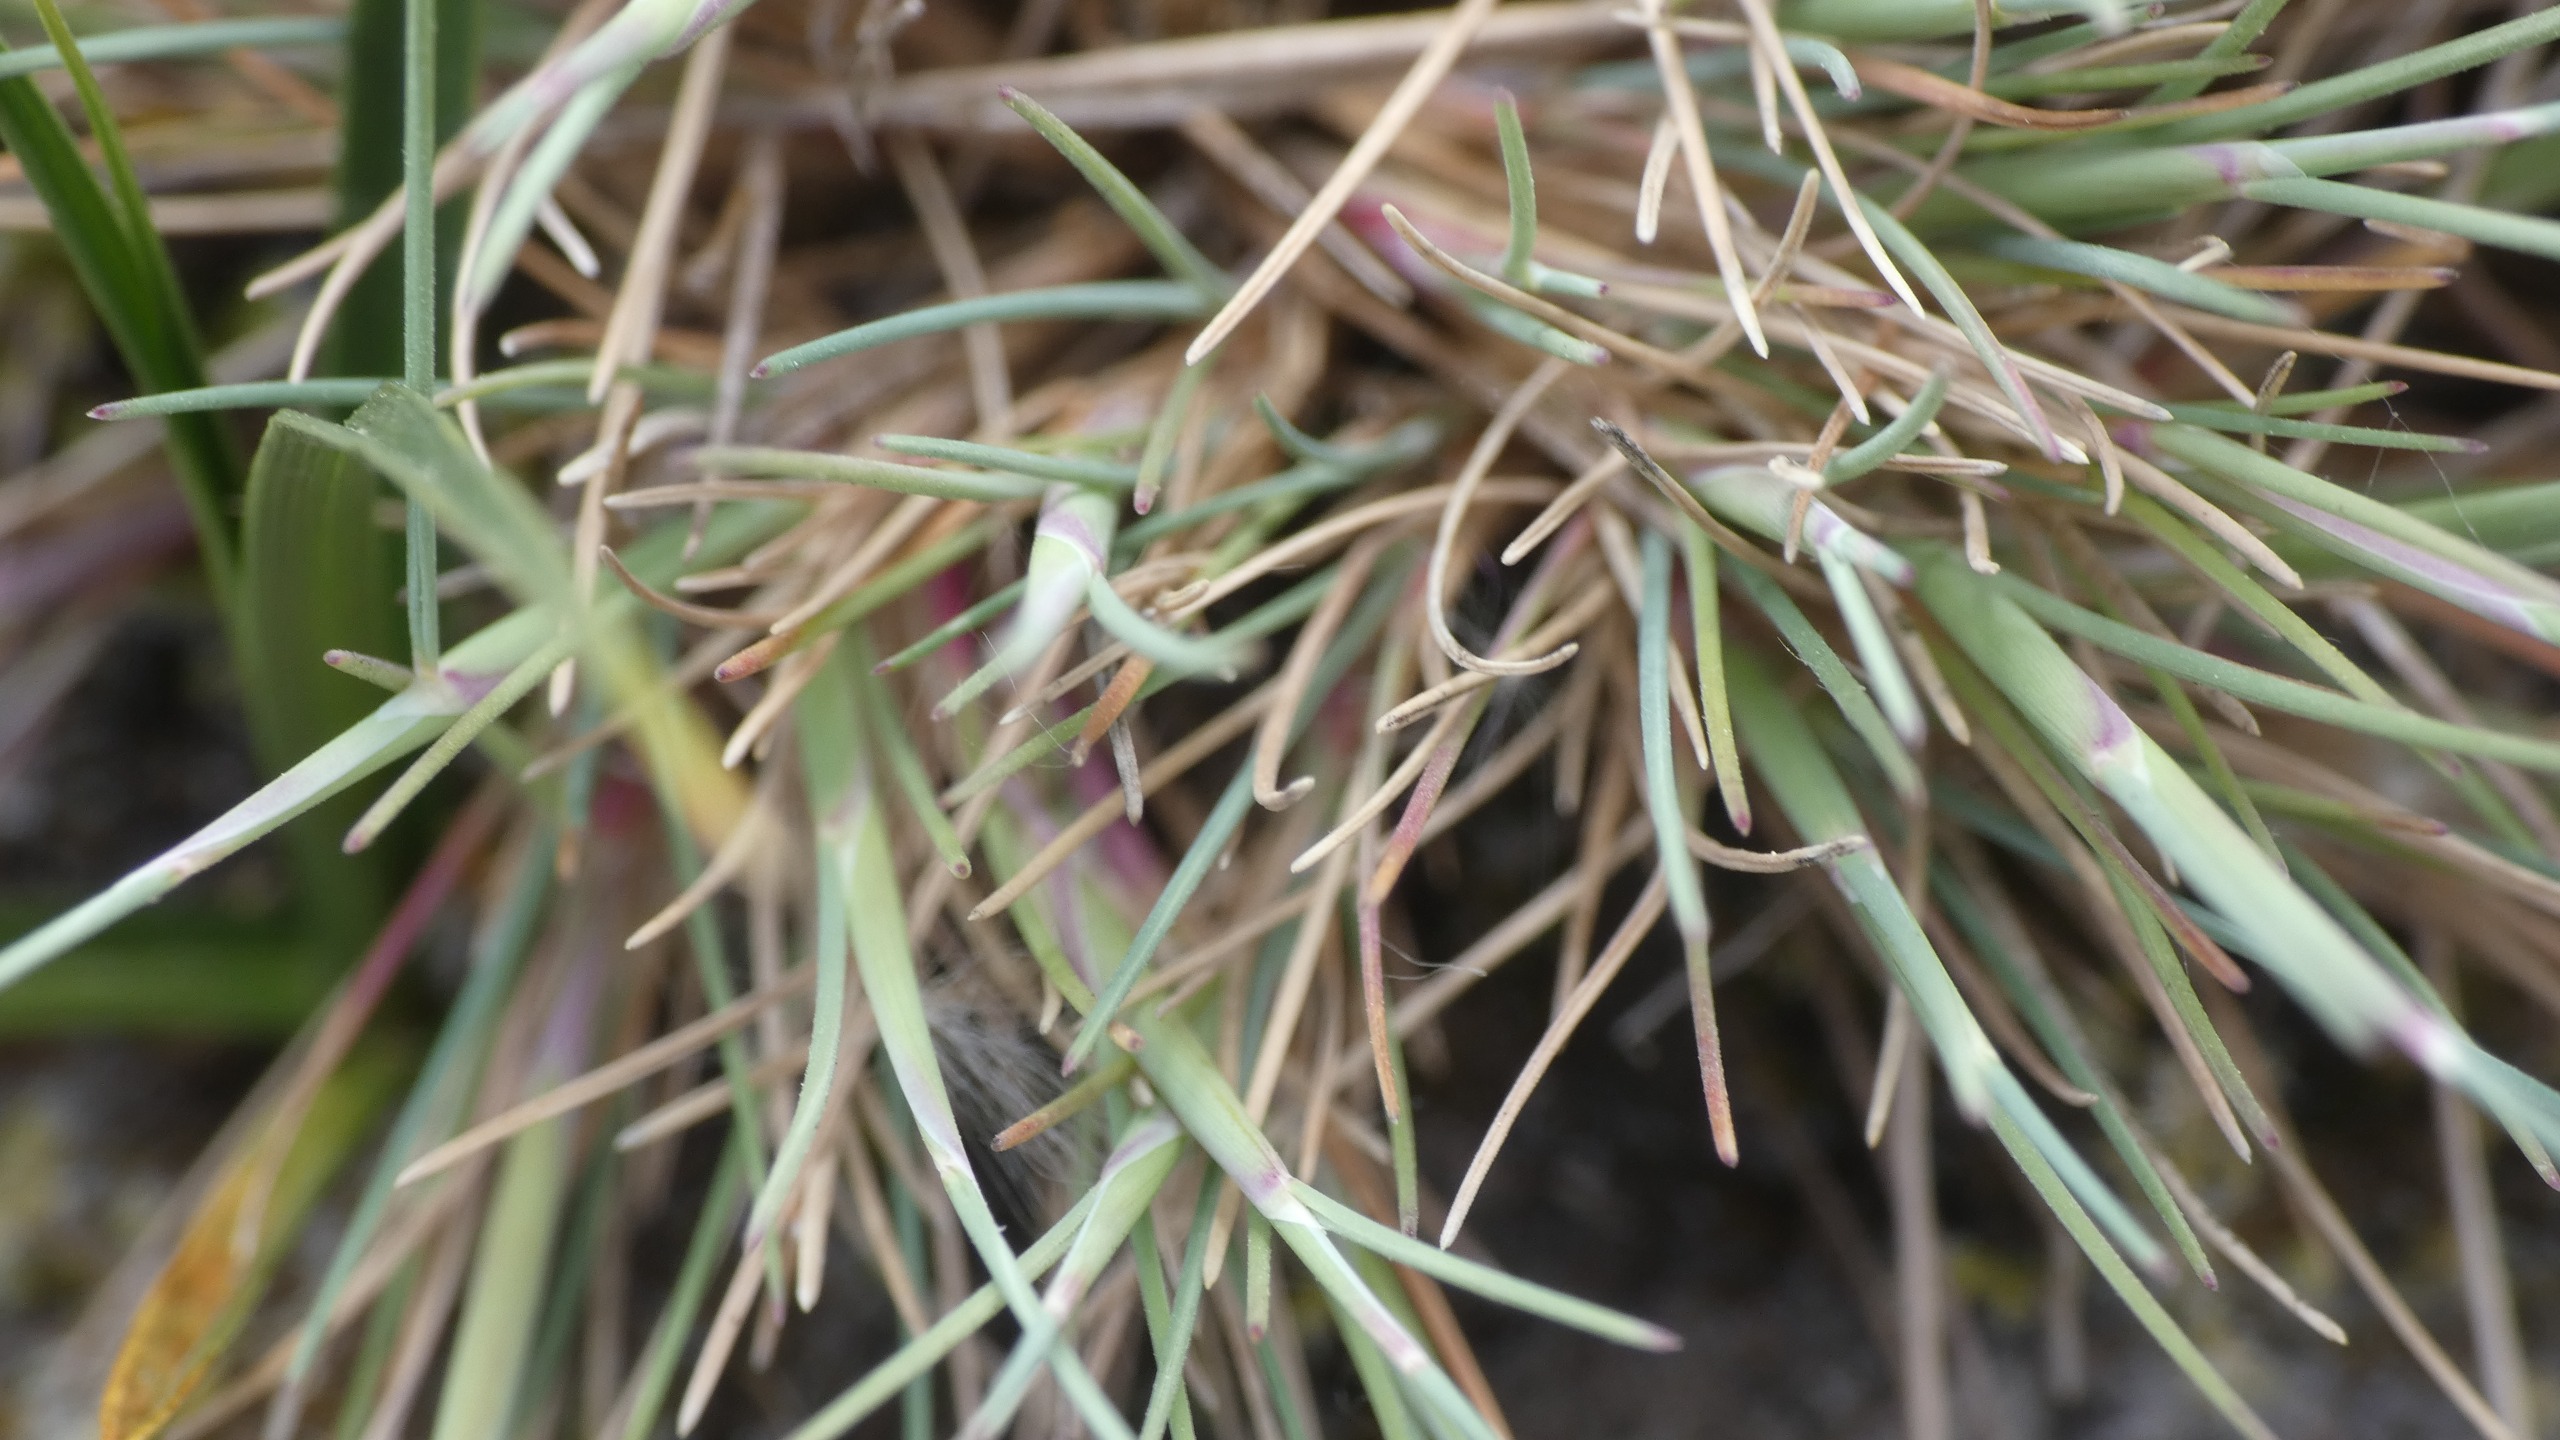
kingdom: Plantae
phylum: Tracheophyta
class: Liliopsida
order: Poales
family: Poaceae
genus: Corynephorus
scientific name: Corynephorus canescens
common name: Sandskæg
